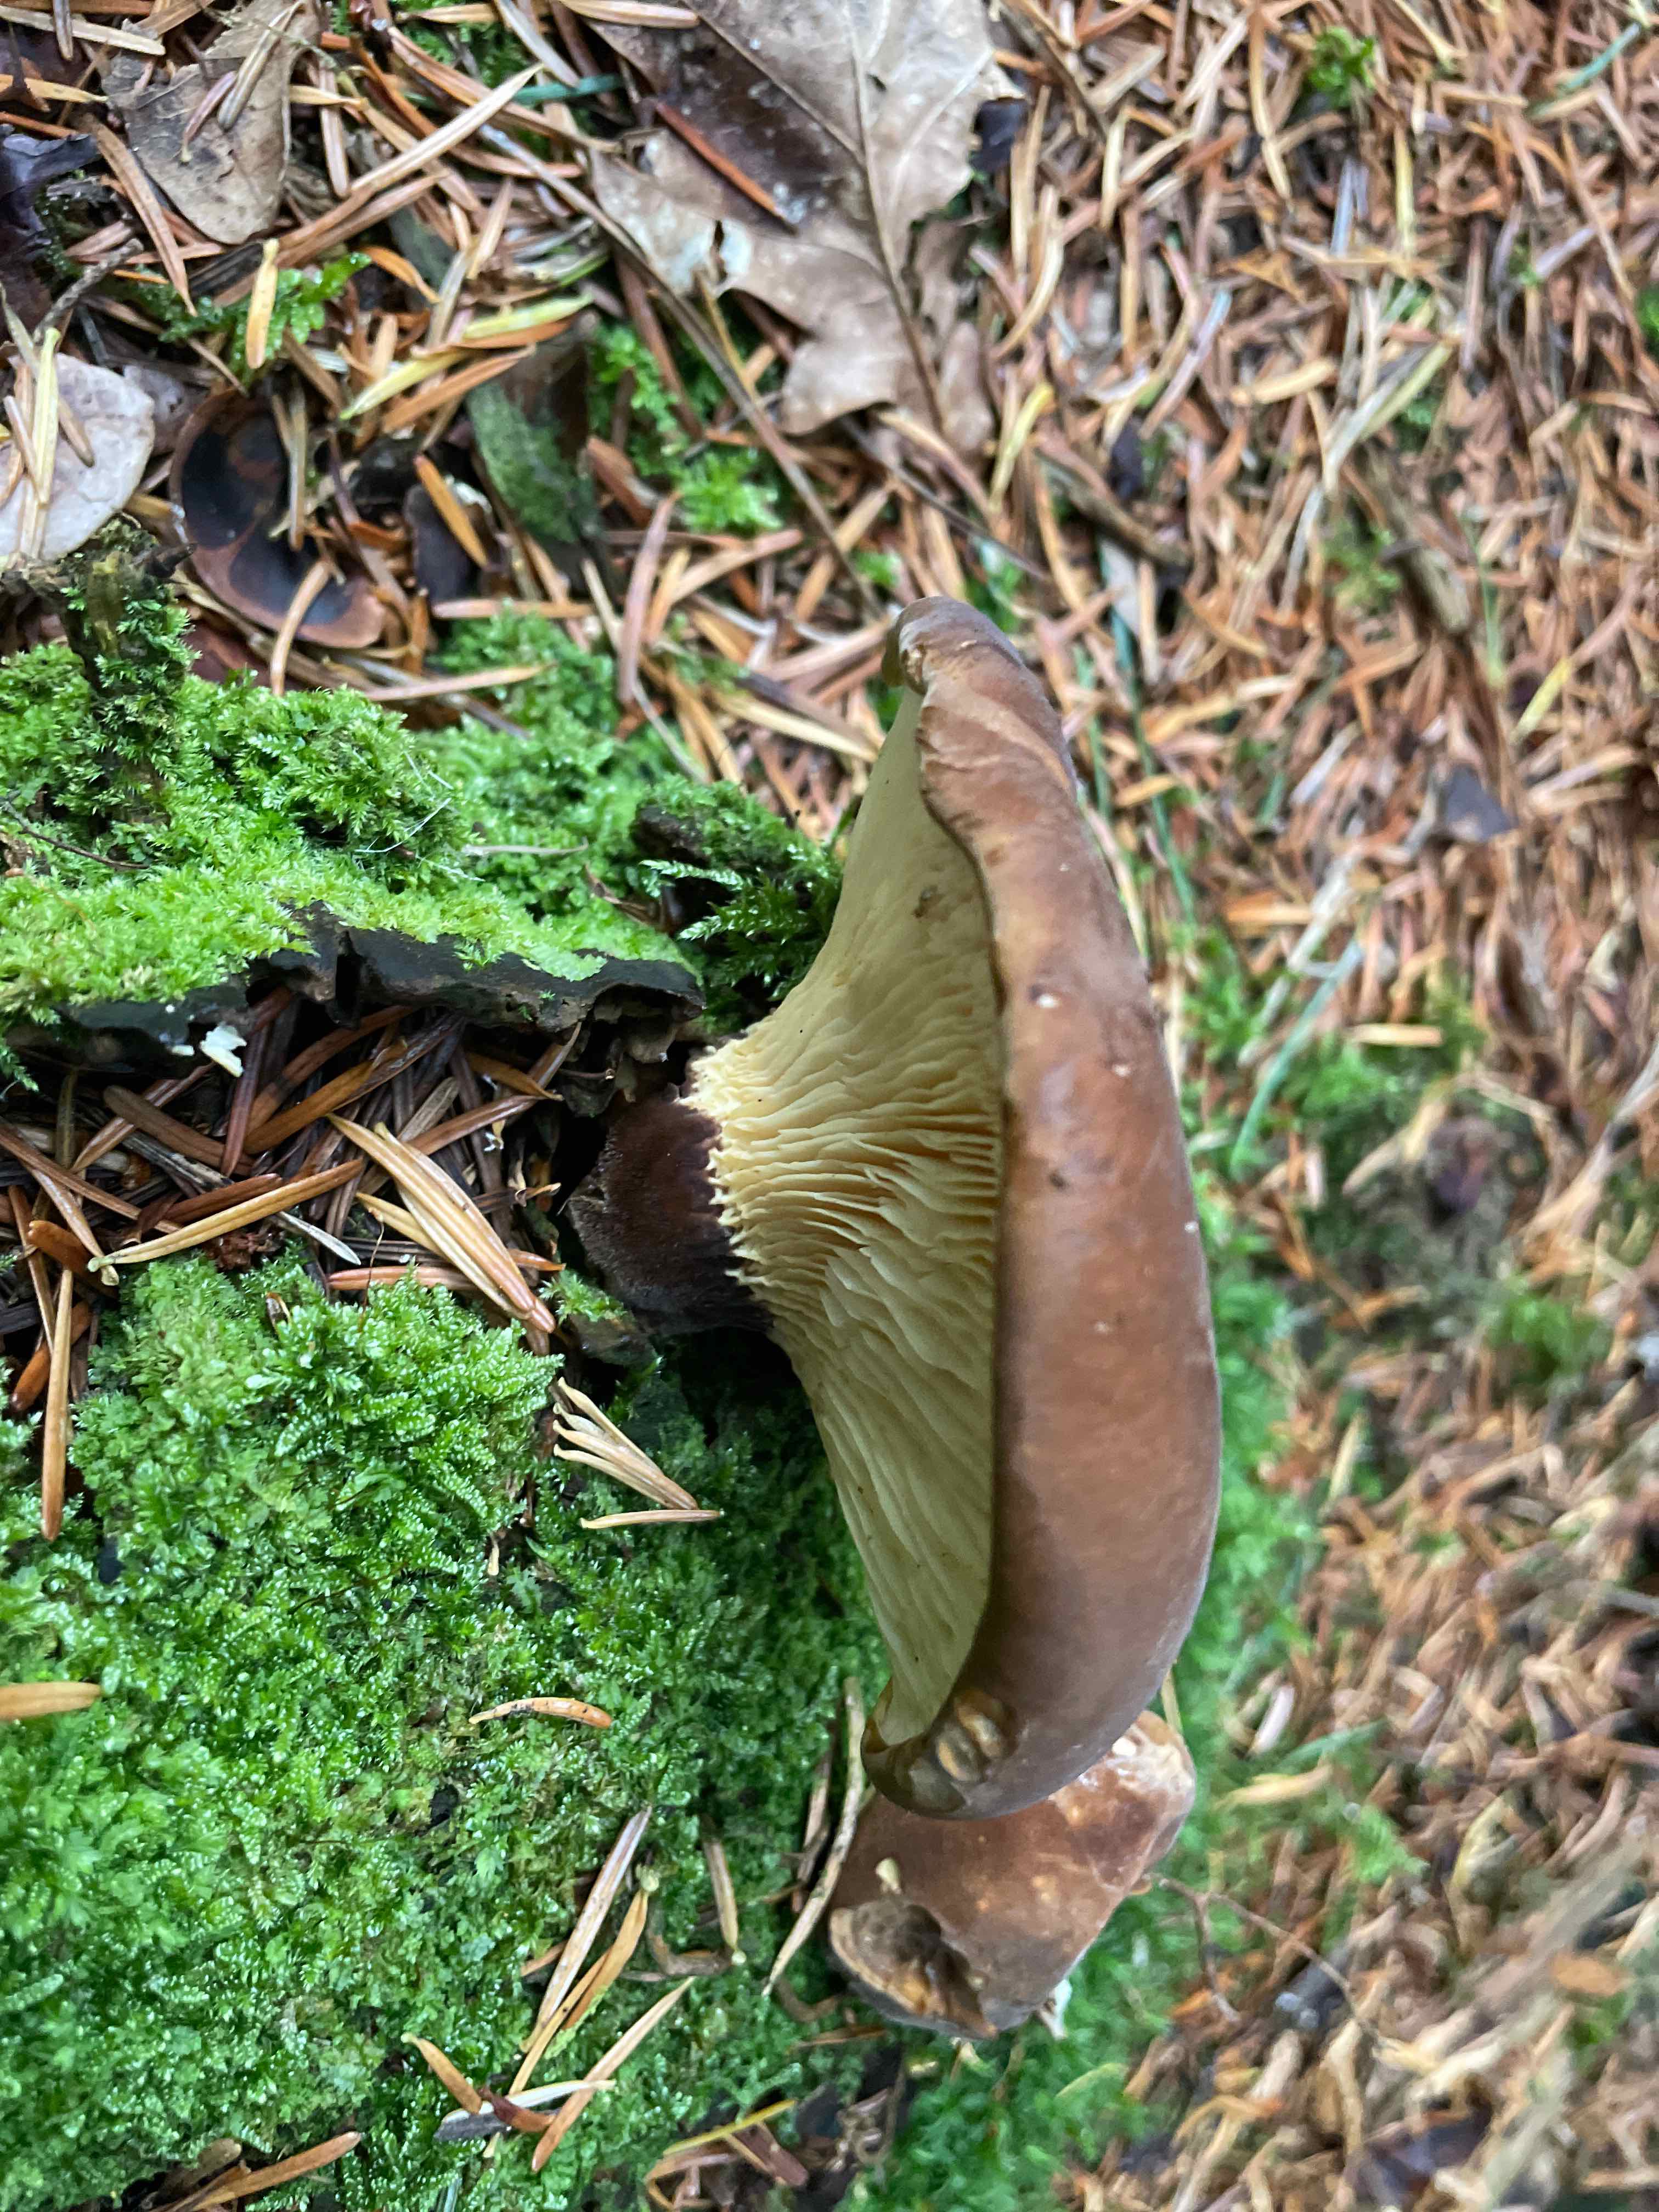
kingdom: Fungi
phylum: Basidiomycota
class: Agaricomycetes
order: Boletales
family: Tapinellaceae
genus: Tapinella
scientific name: Tapinella atrotomentosa
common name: sortfiltet viftesvamp
